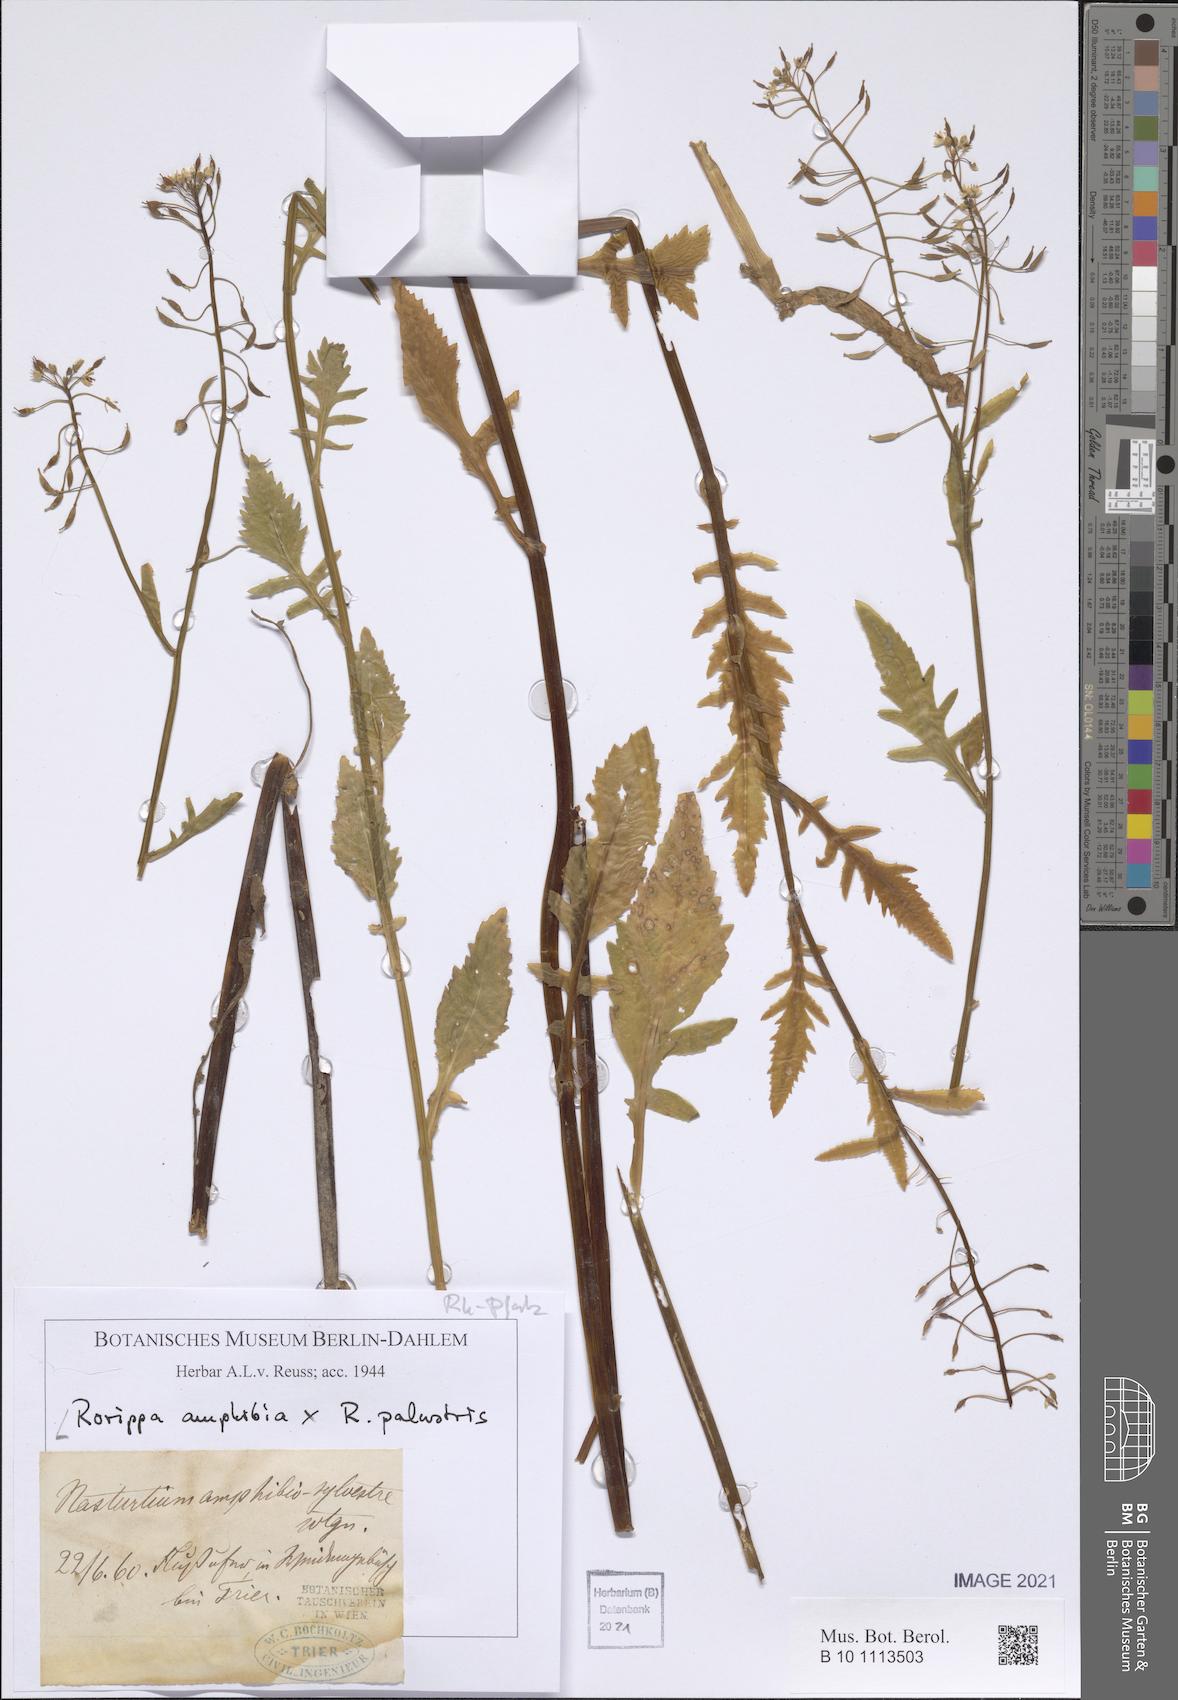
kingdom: Plantae
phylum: Tracheophyta
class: Magnoliopsida
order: Brassicales
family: Brassicaceae
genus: Rorippa
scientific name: Rorippa amphibia
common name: Great yellow-cress
